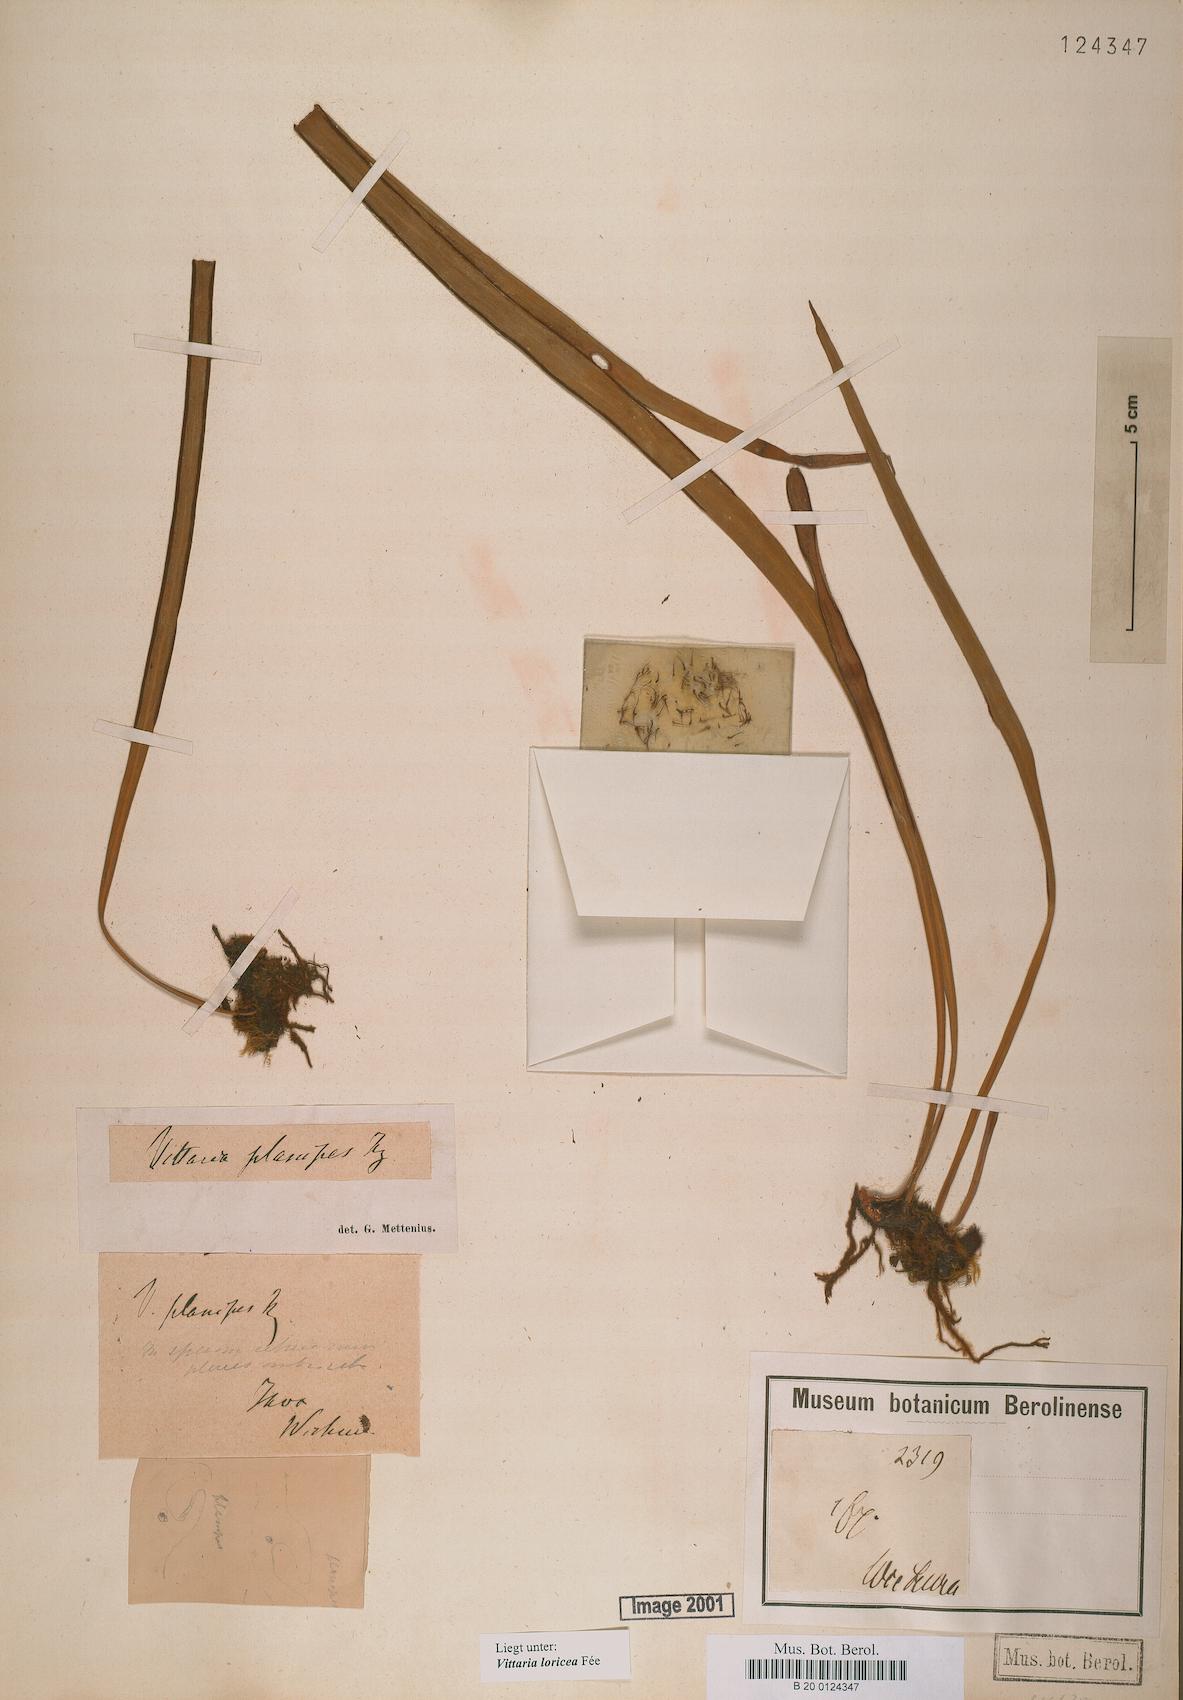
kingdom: Plantae
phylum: Tracheophyta
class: Polypodiopsida
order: Polypodiales
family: Pteridaceae
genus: Haplopteris
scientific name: Haplopteris zosterifolia
